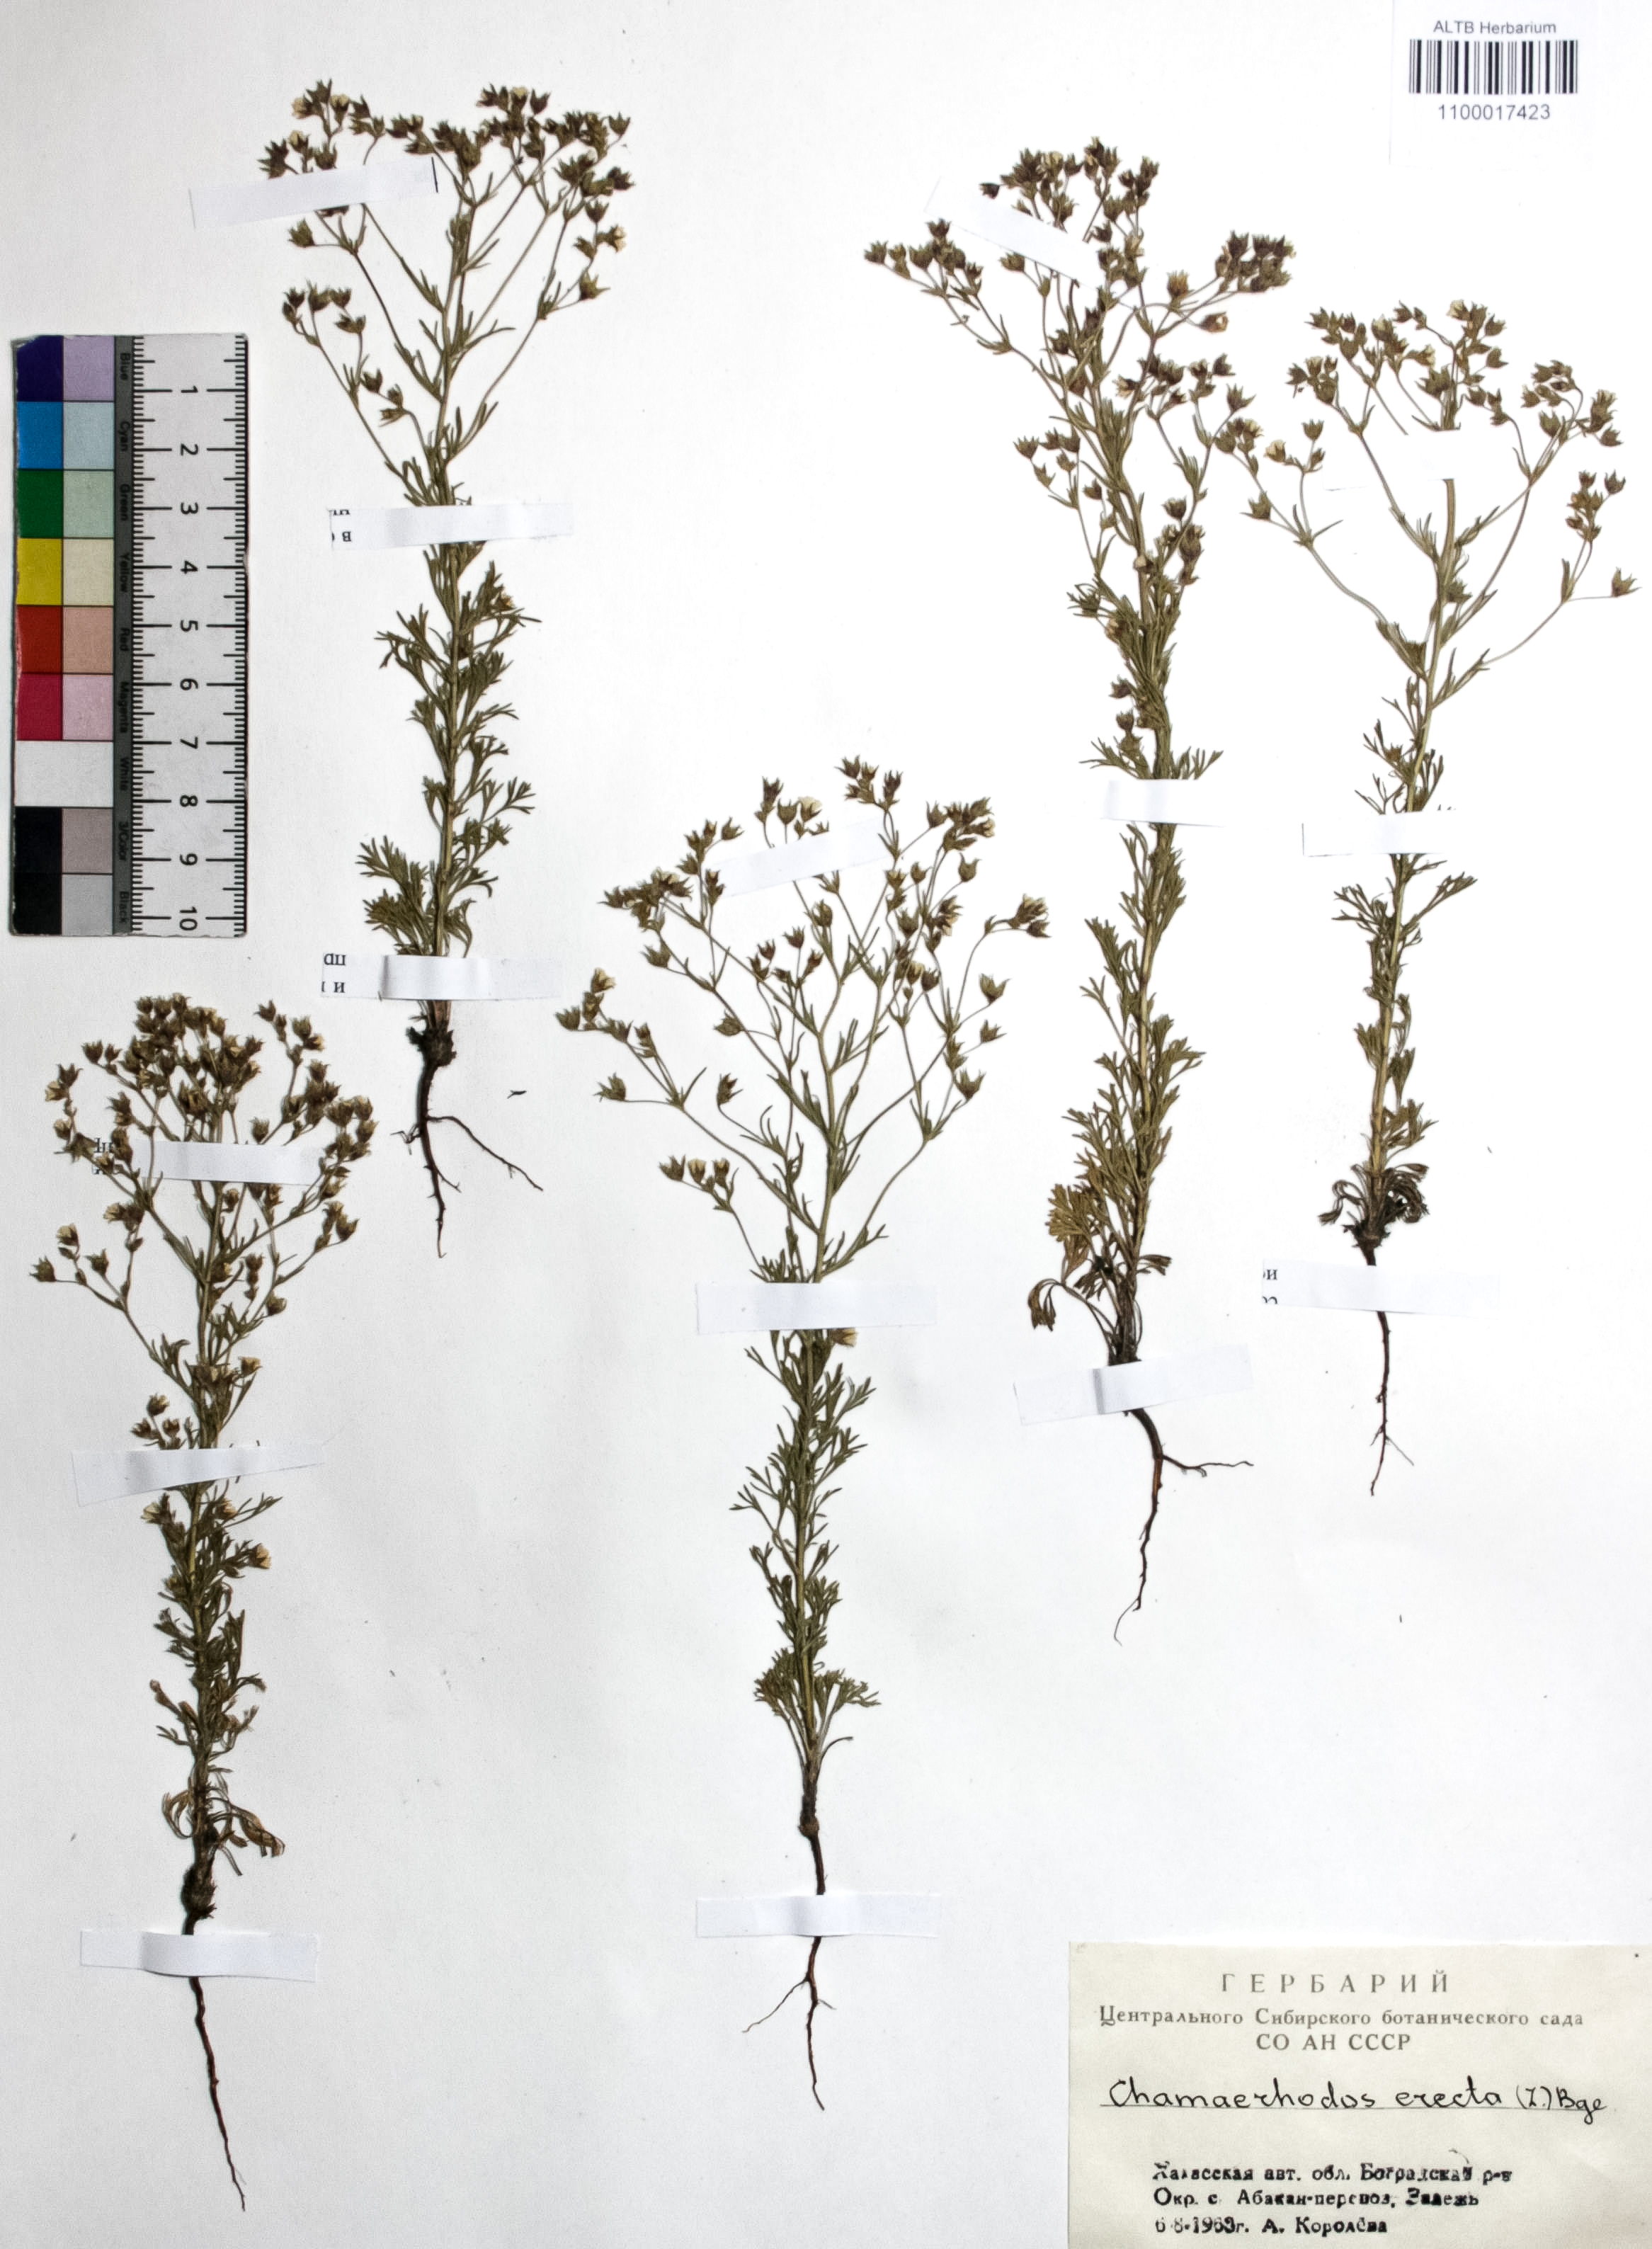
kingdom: Plantae
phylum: Tracheophyta
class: Magnoliopsida
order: Rosales
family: Rosaceae
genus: Chamaerhodos
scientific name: Chamaerhodos erecta
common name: American chamaerhodos
